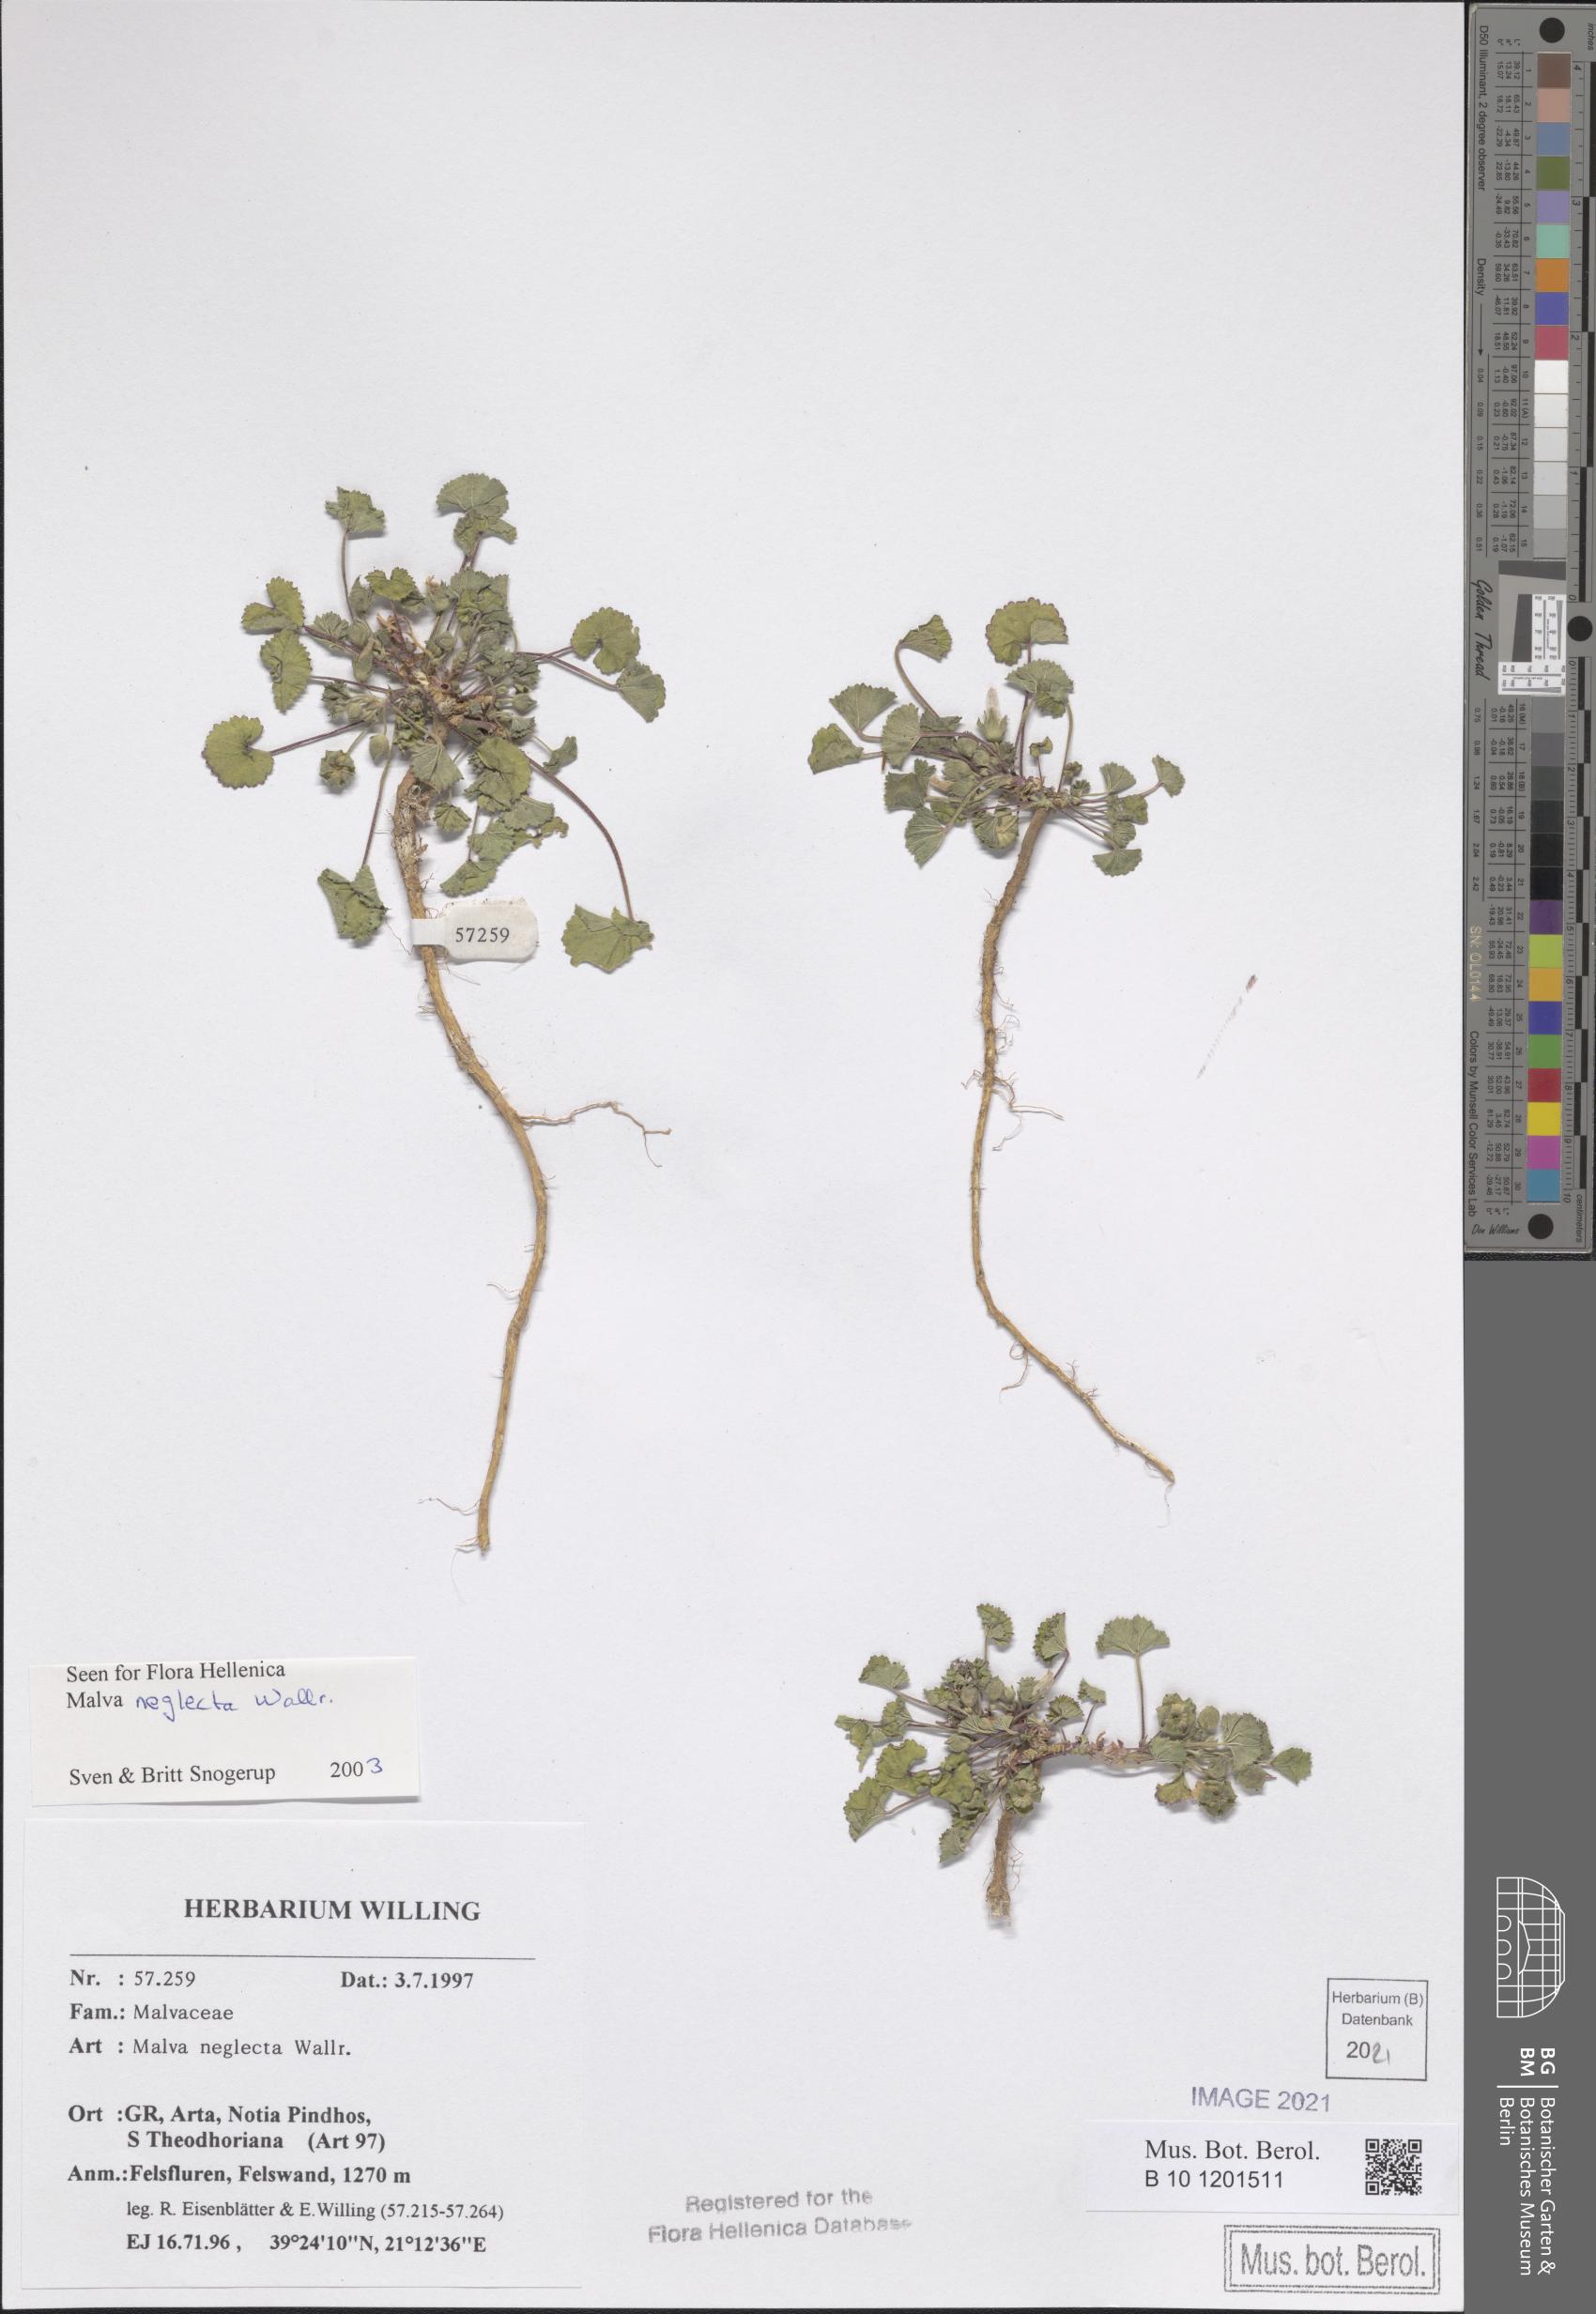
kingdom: Plantae
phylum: Tracheophyta
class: Magnoliopsida
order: Malvales
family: Malvaceae
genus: Malva
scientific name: Malva neglecta
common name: Common mallow
